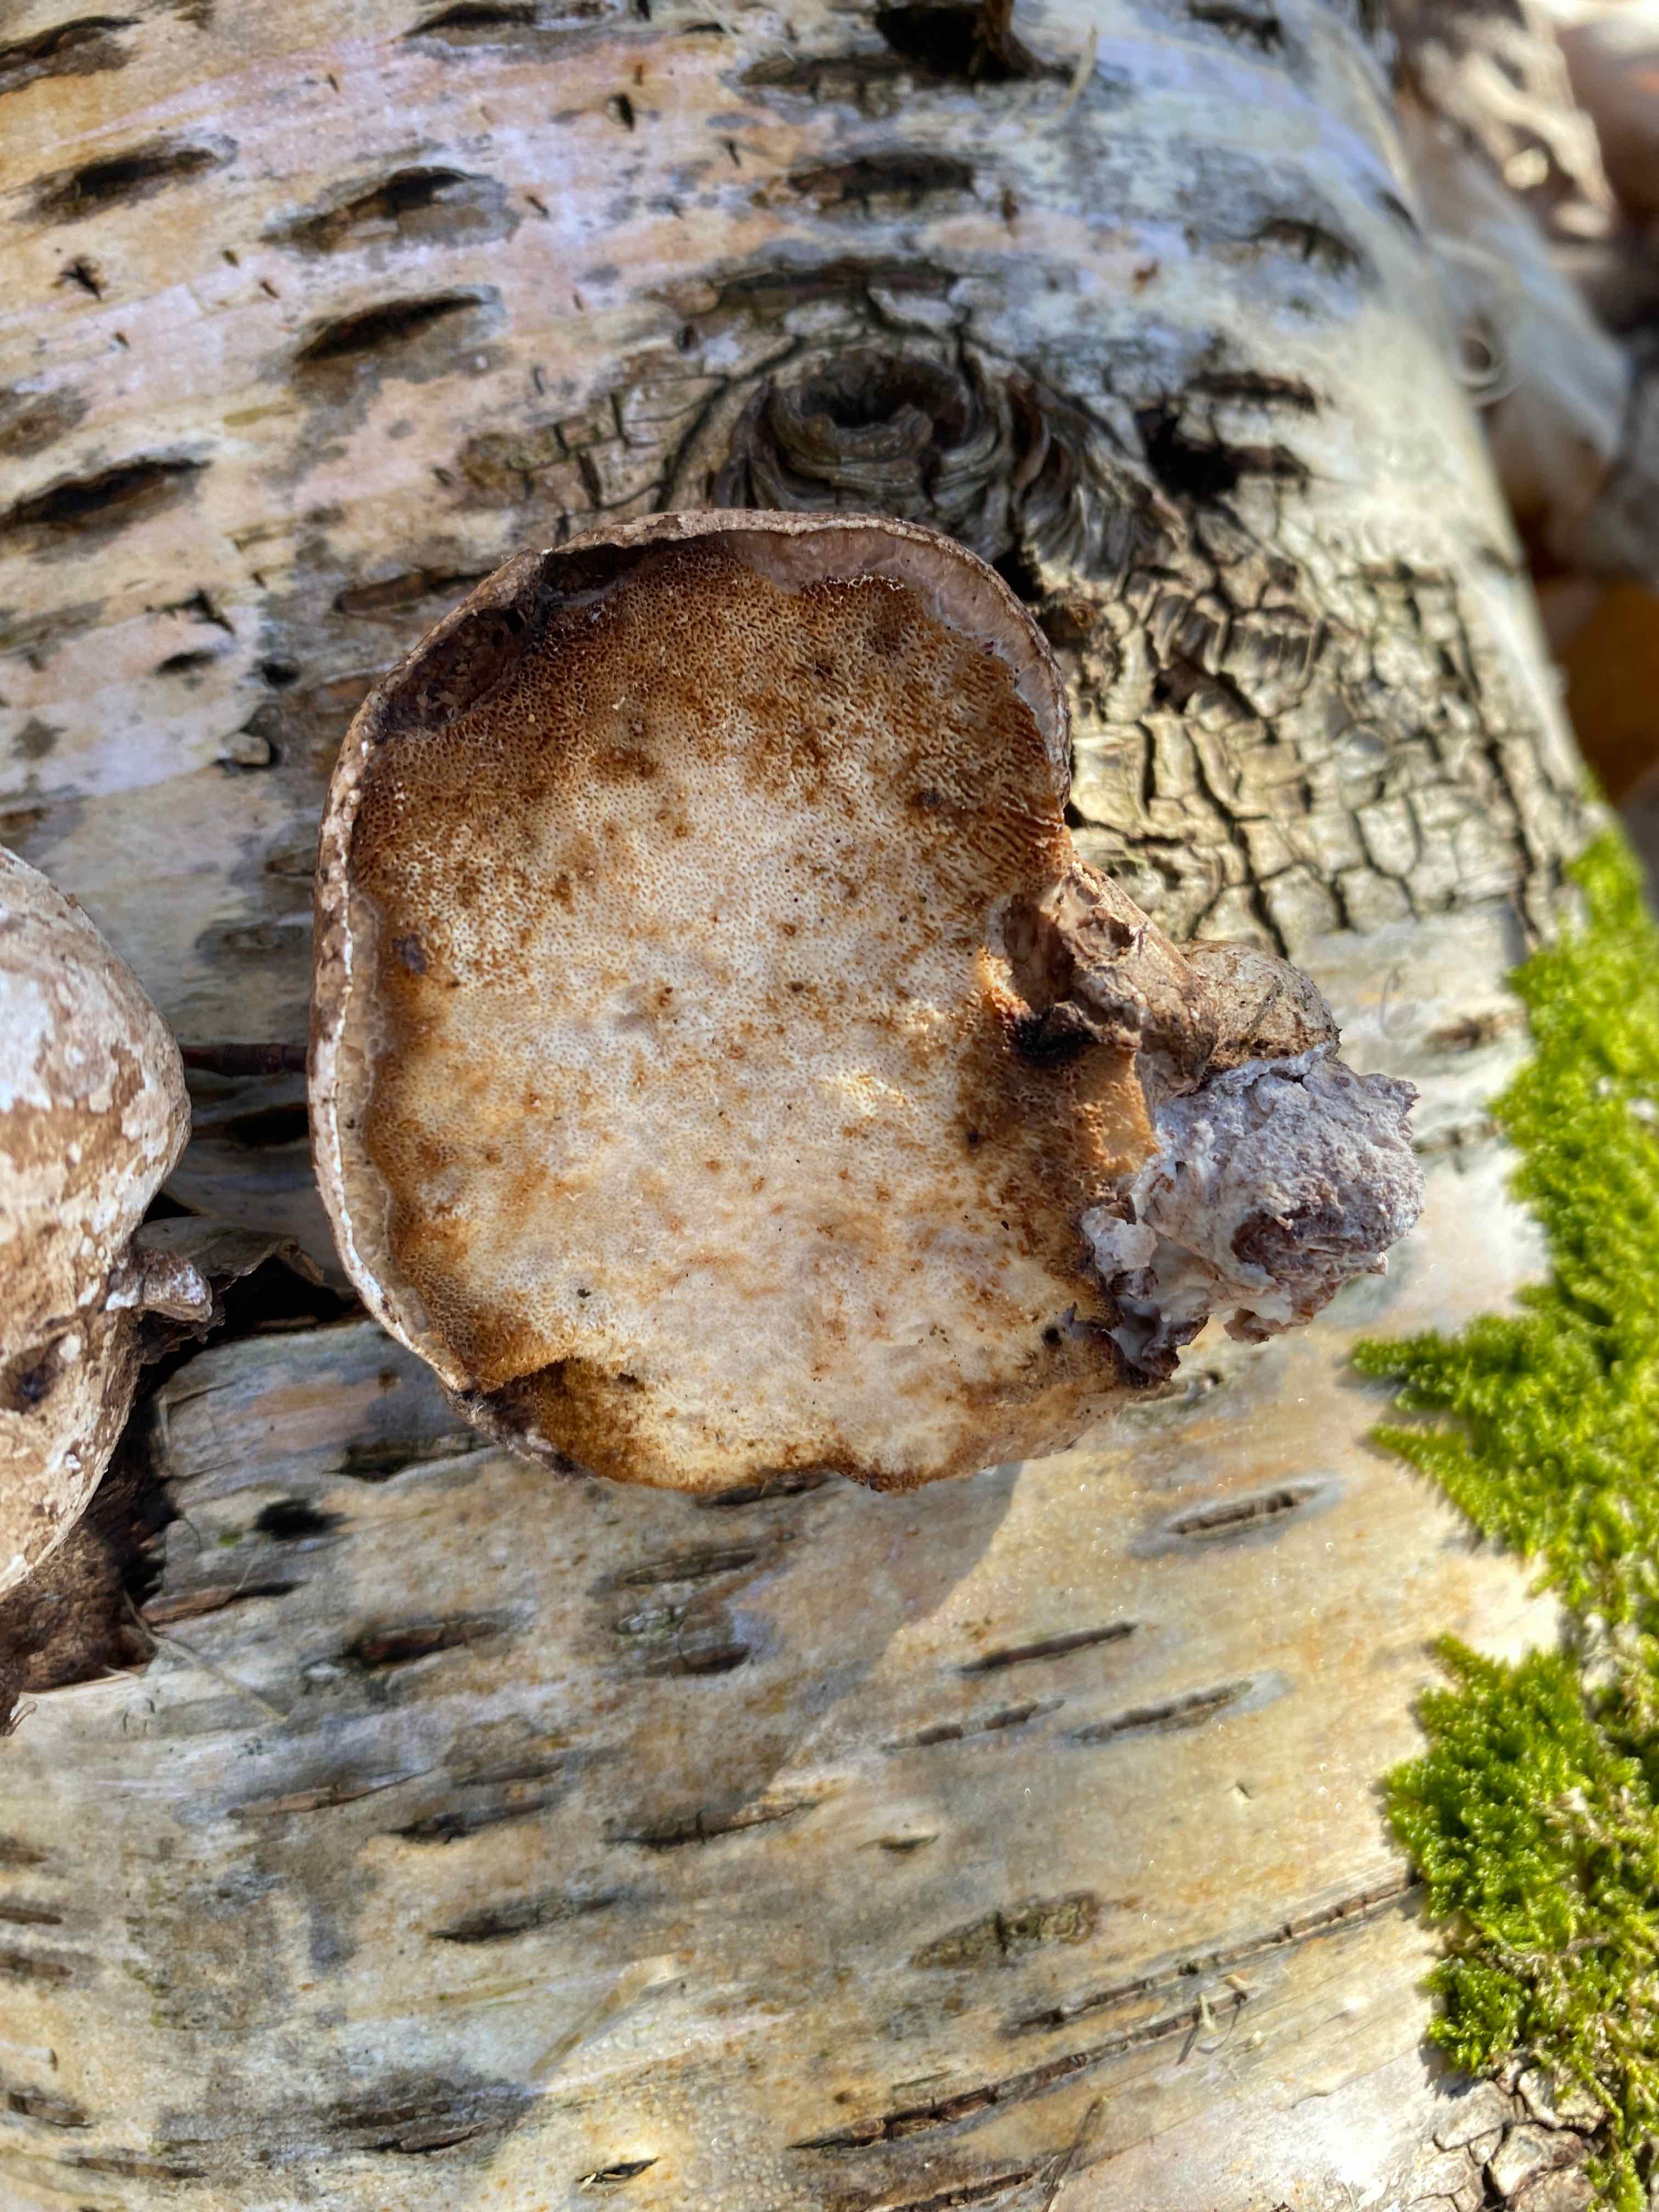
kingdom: Fungi
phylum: Basidiomycota
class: Agaricomycetes
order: Polyporales
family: Fomitopsidaceae
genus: Fomitopsis
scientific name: Fomitopsis betulina
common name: birkeporesvamp
